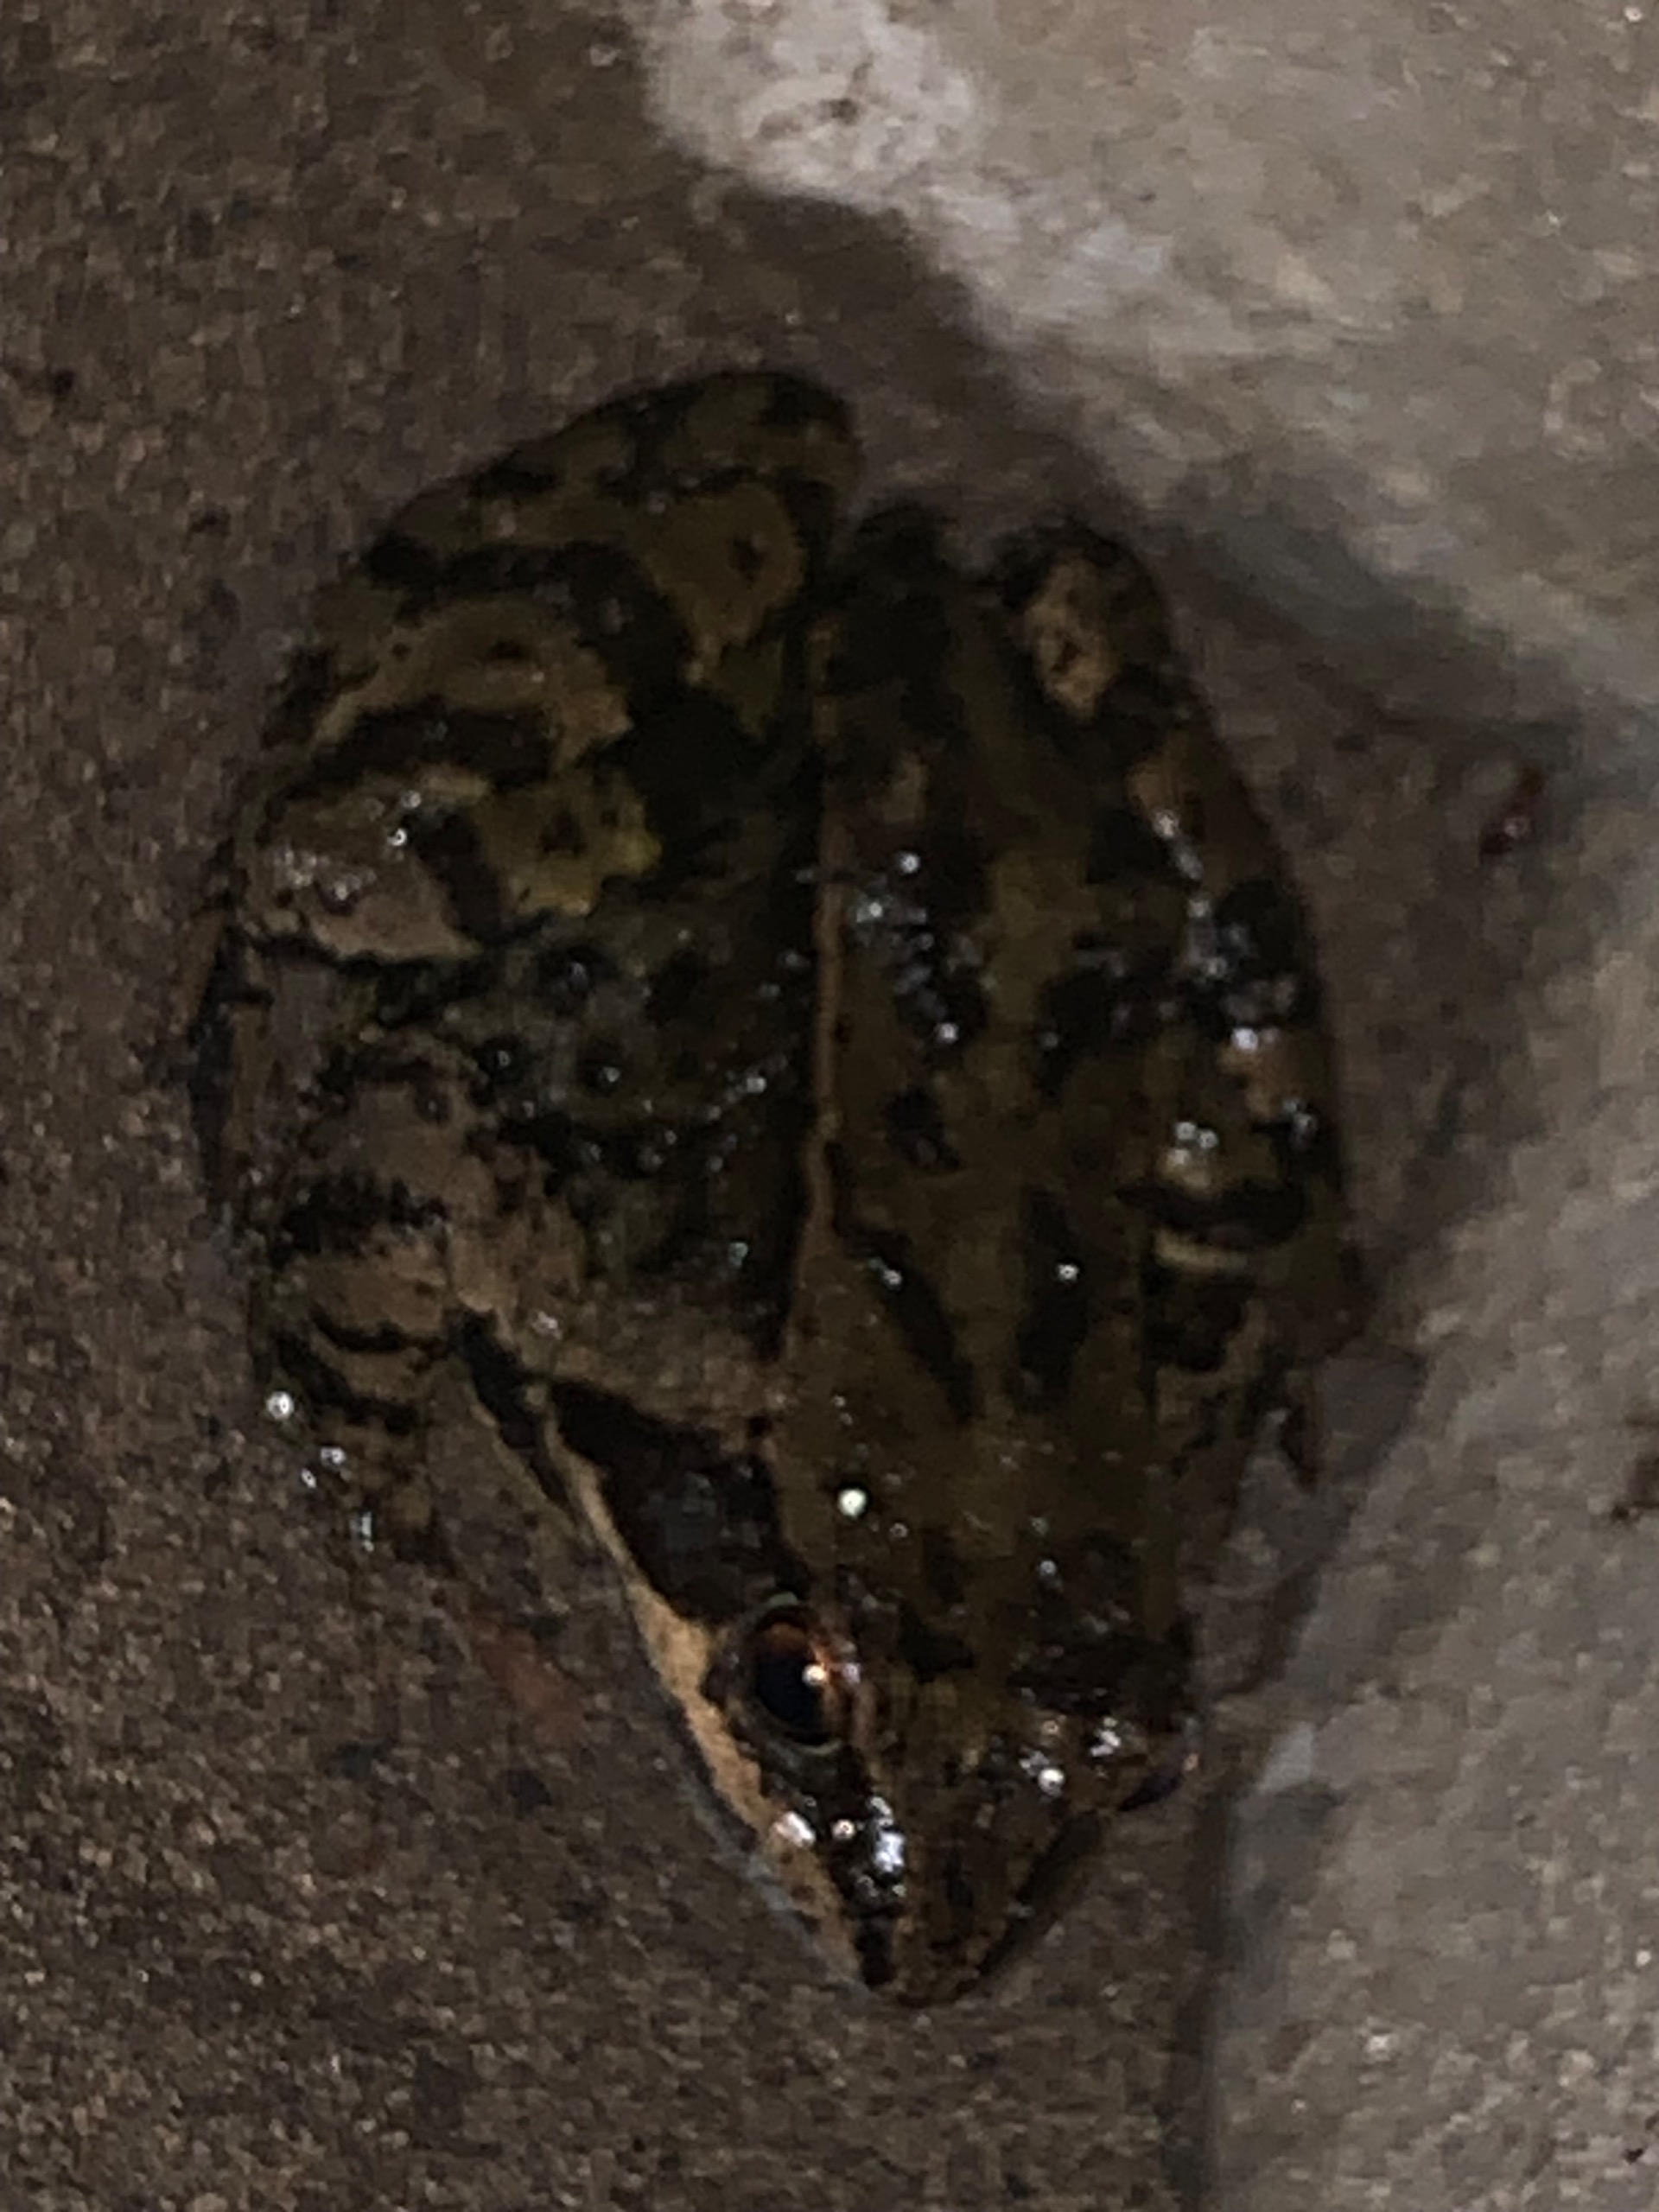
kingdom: Animalia
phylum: Chordata
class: Amphibia
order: Anura
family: Ranidae
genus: Rana
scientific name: Rana temporaria
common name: Butsnudet frø
